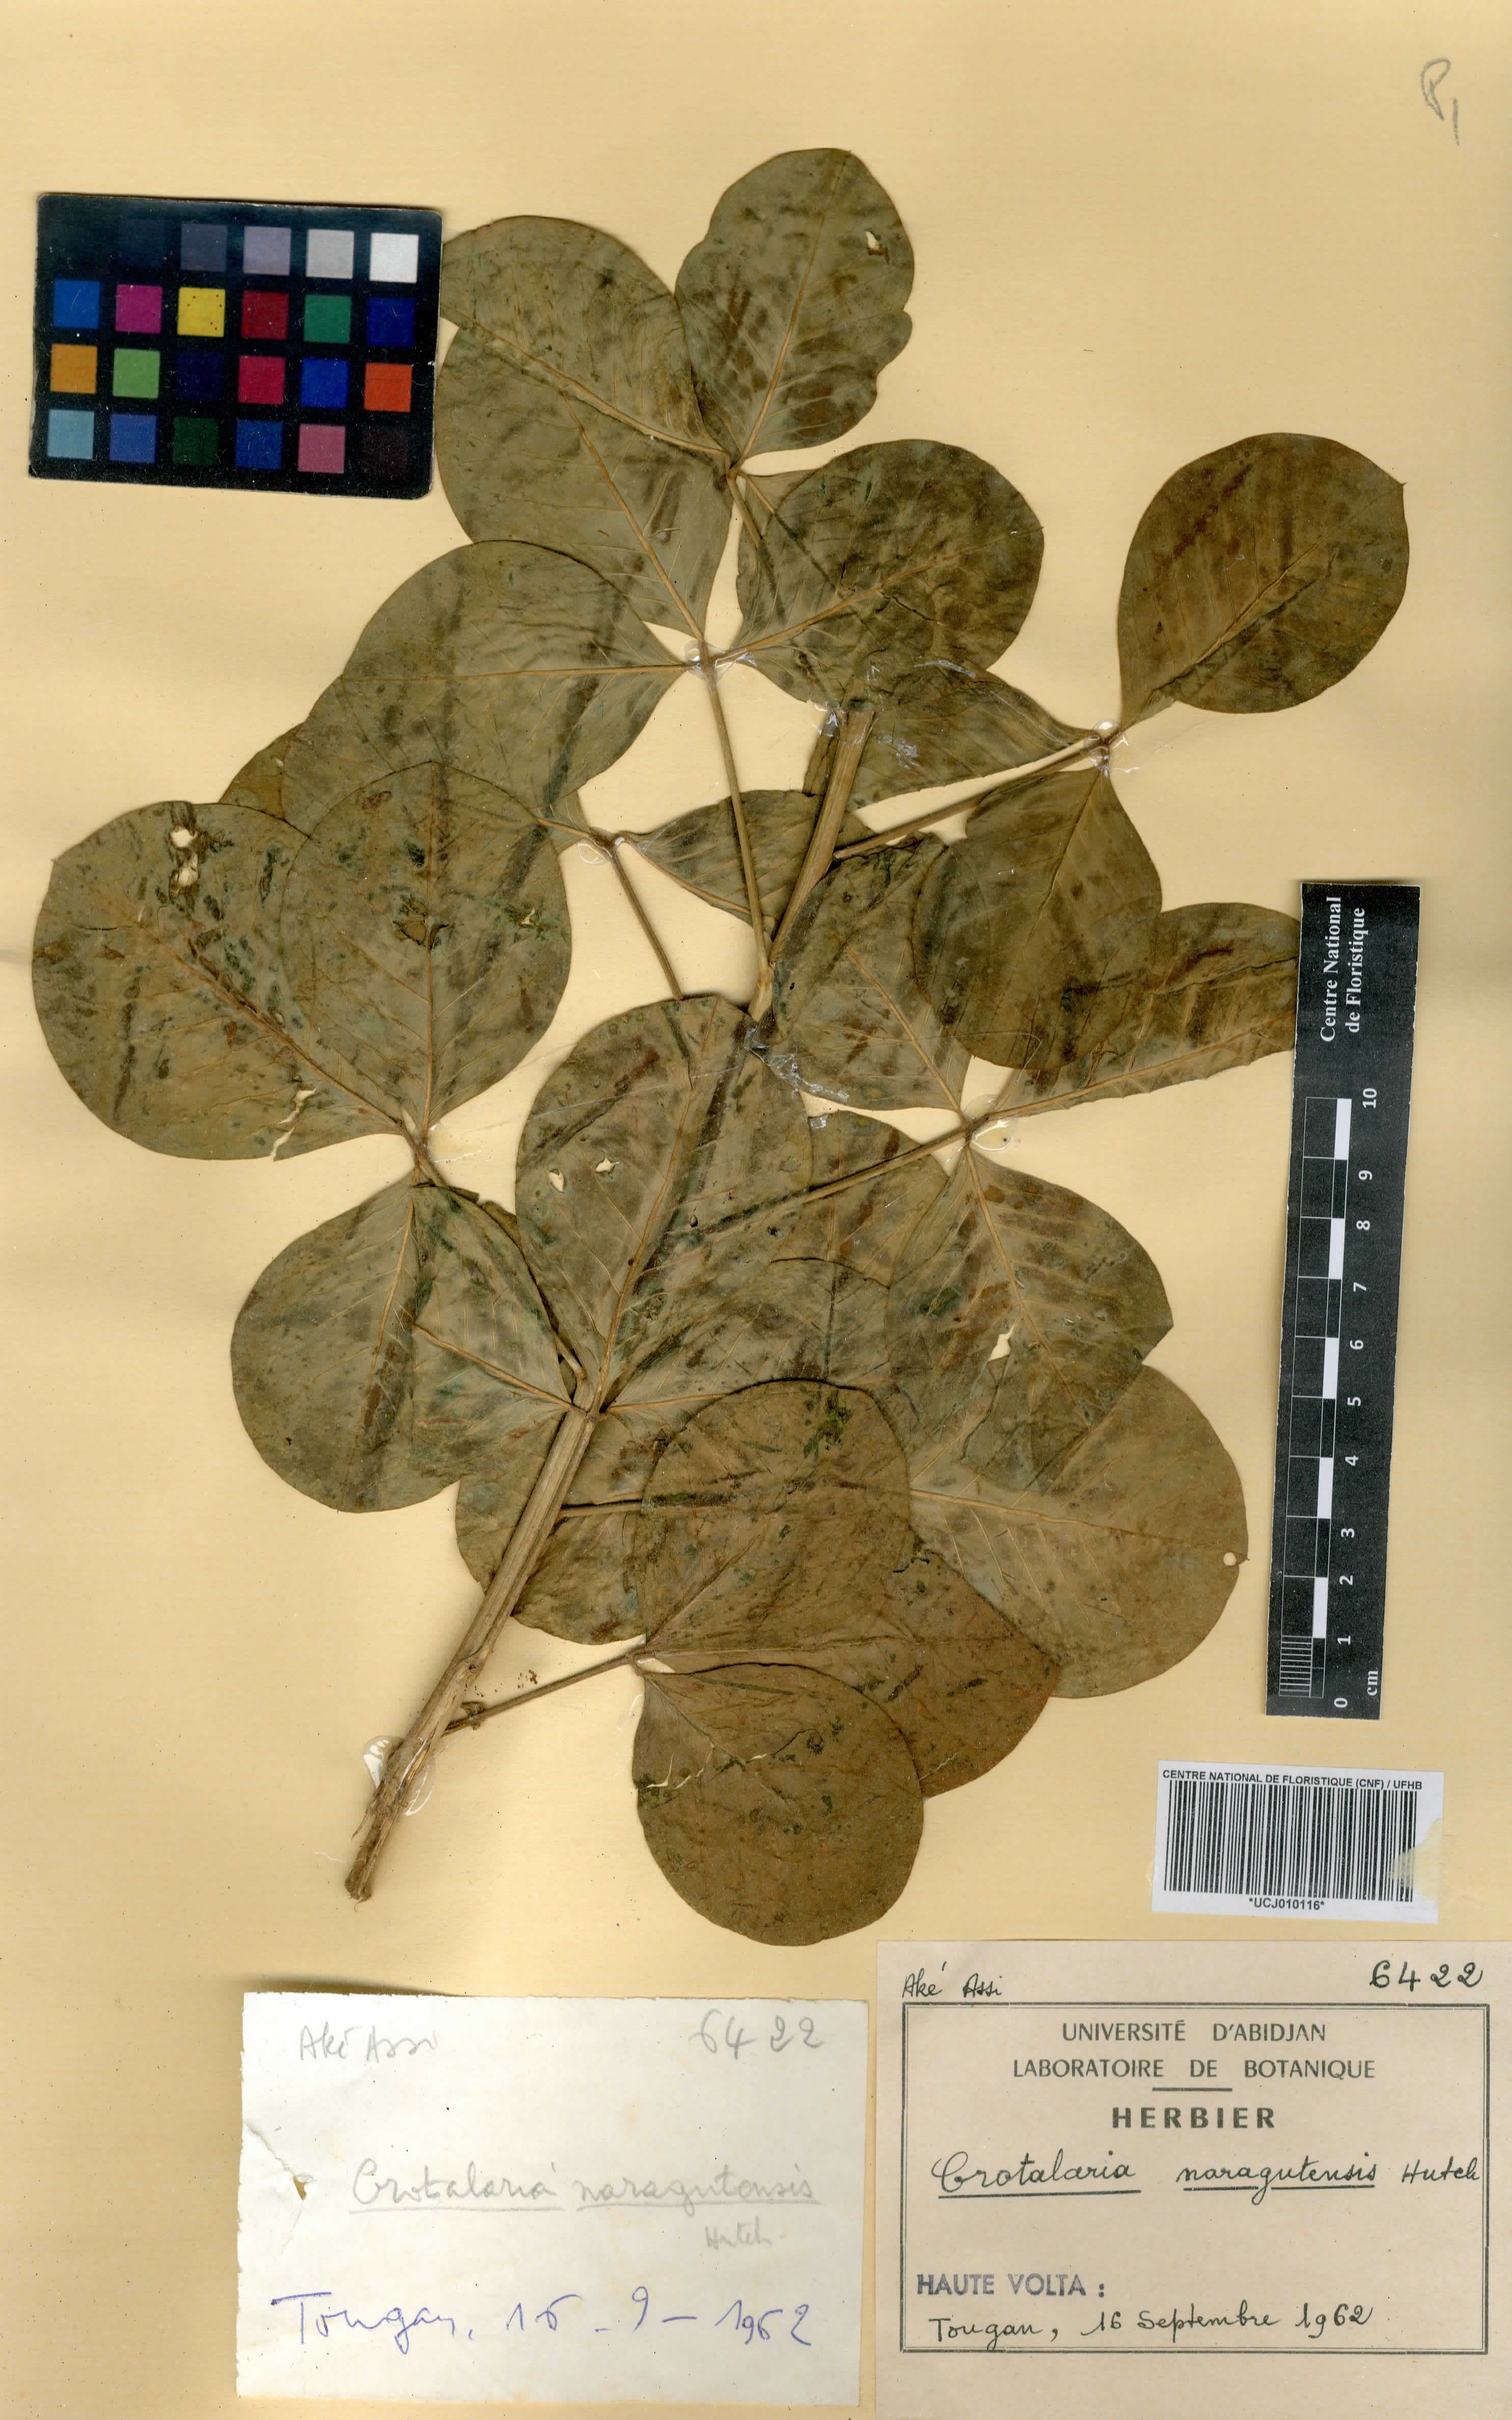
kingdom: Plantae
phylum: Tracheophyta
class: Magnoliopsida
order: Fabales
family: Fabaceae
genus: Crotalaria
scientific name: Crotalaria naragutensis
